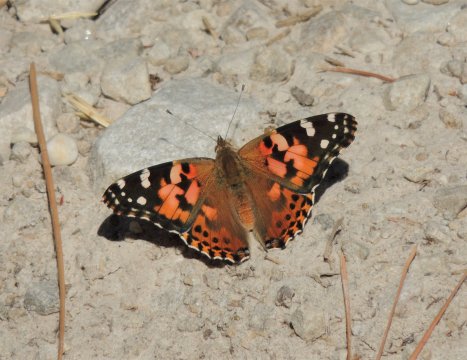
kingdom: Animalia
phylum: Arthropoda
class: Insecta
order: Lepidoptera
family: Nymphalidae
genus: Vanessa
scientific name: Vanessa cardui
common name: Painted Lady
